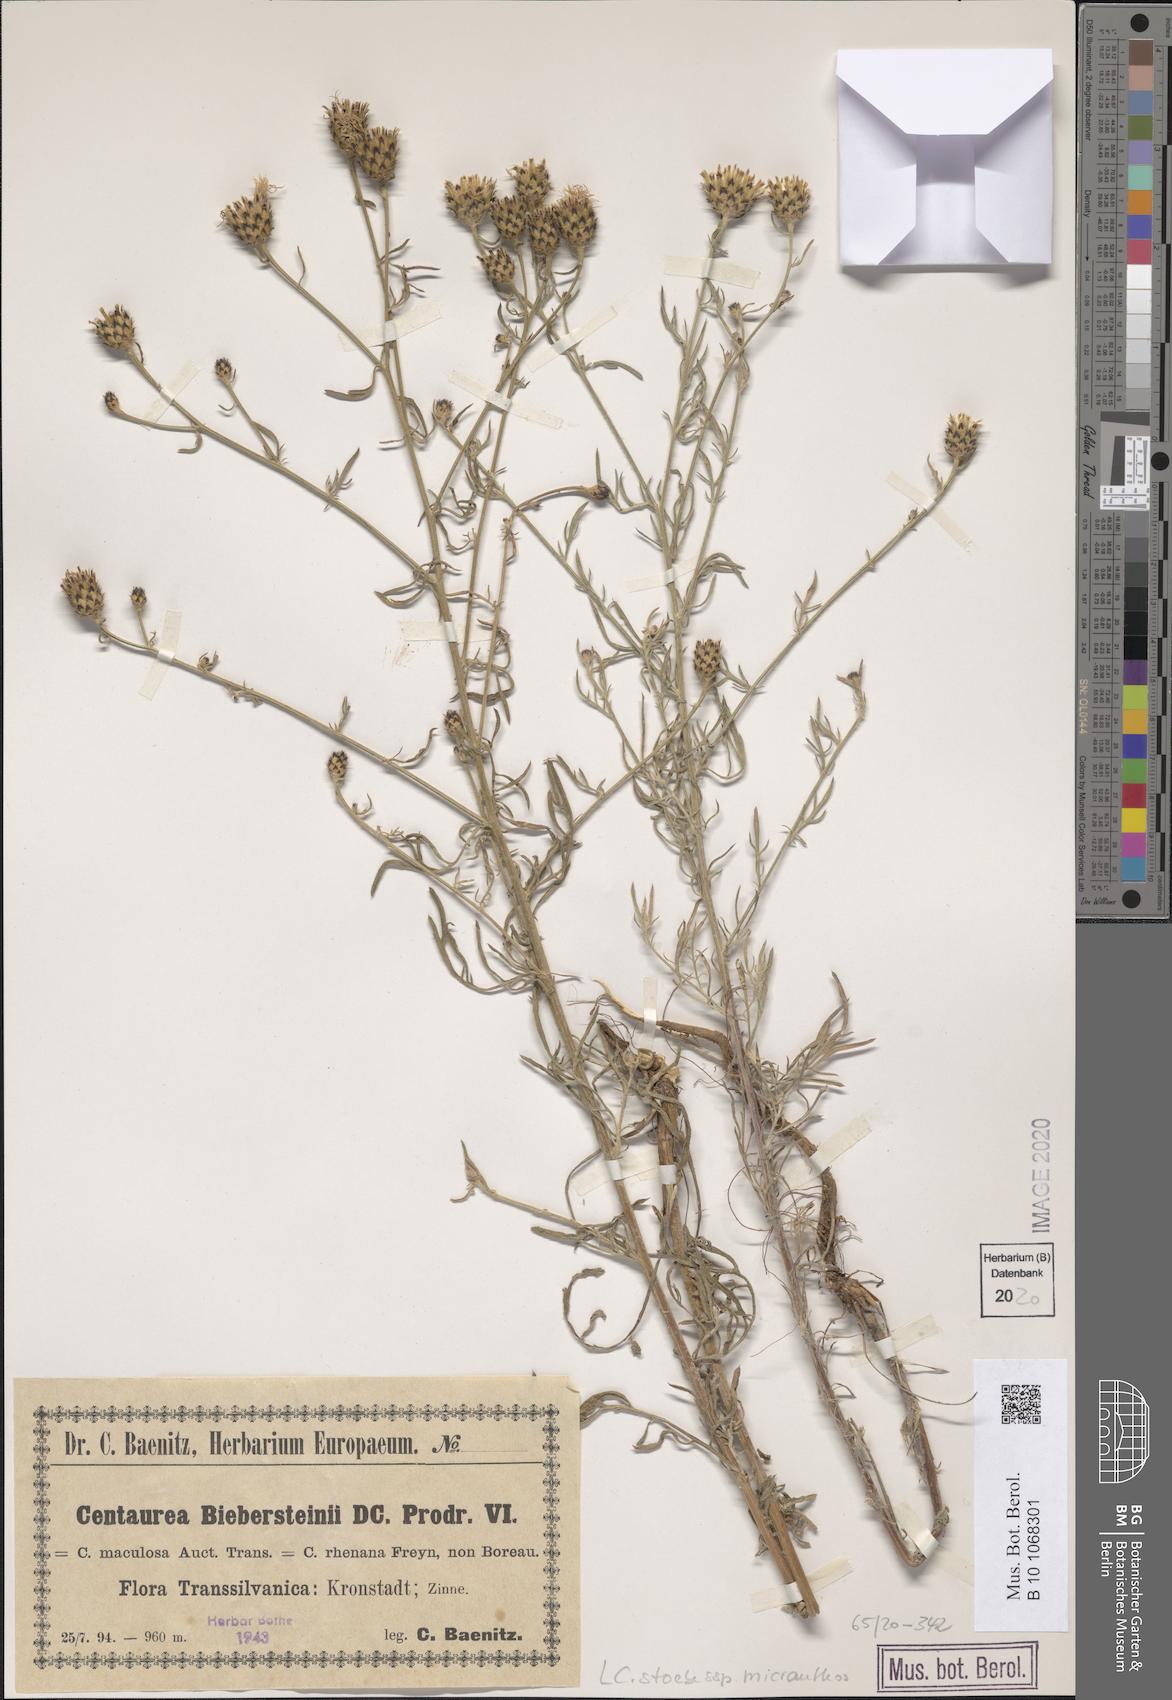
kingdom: Plantae
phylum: Tracheophyta
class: Magnoliopsida
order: Asterales
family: Asteraceae
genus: Centaurea
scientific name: Centaurea australis
